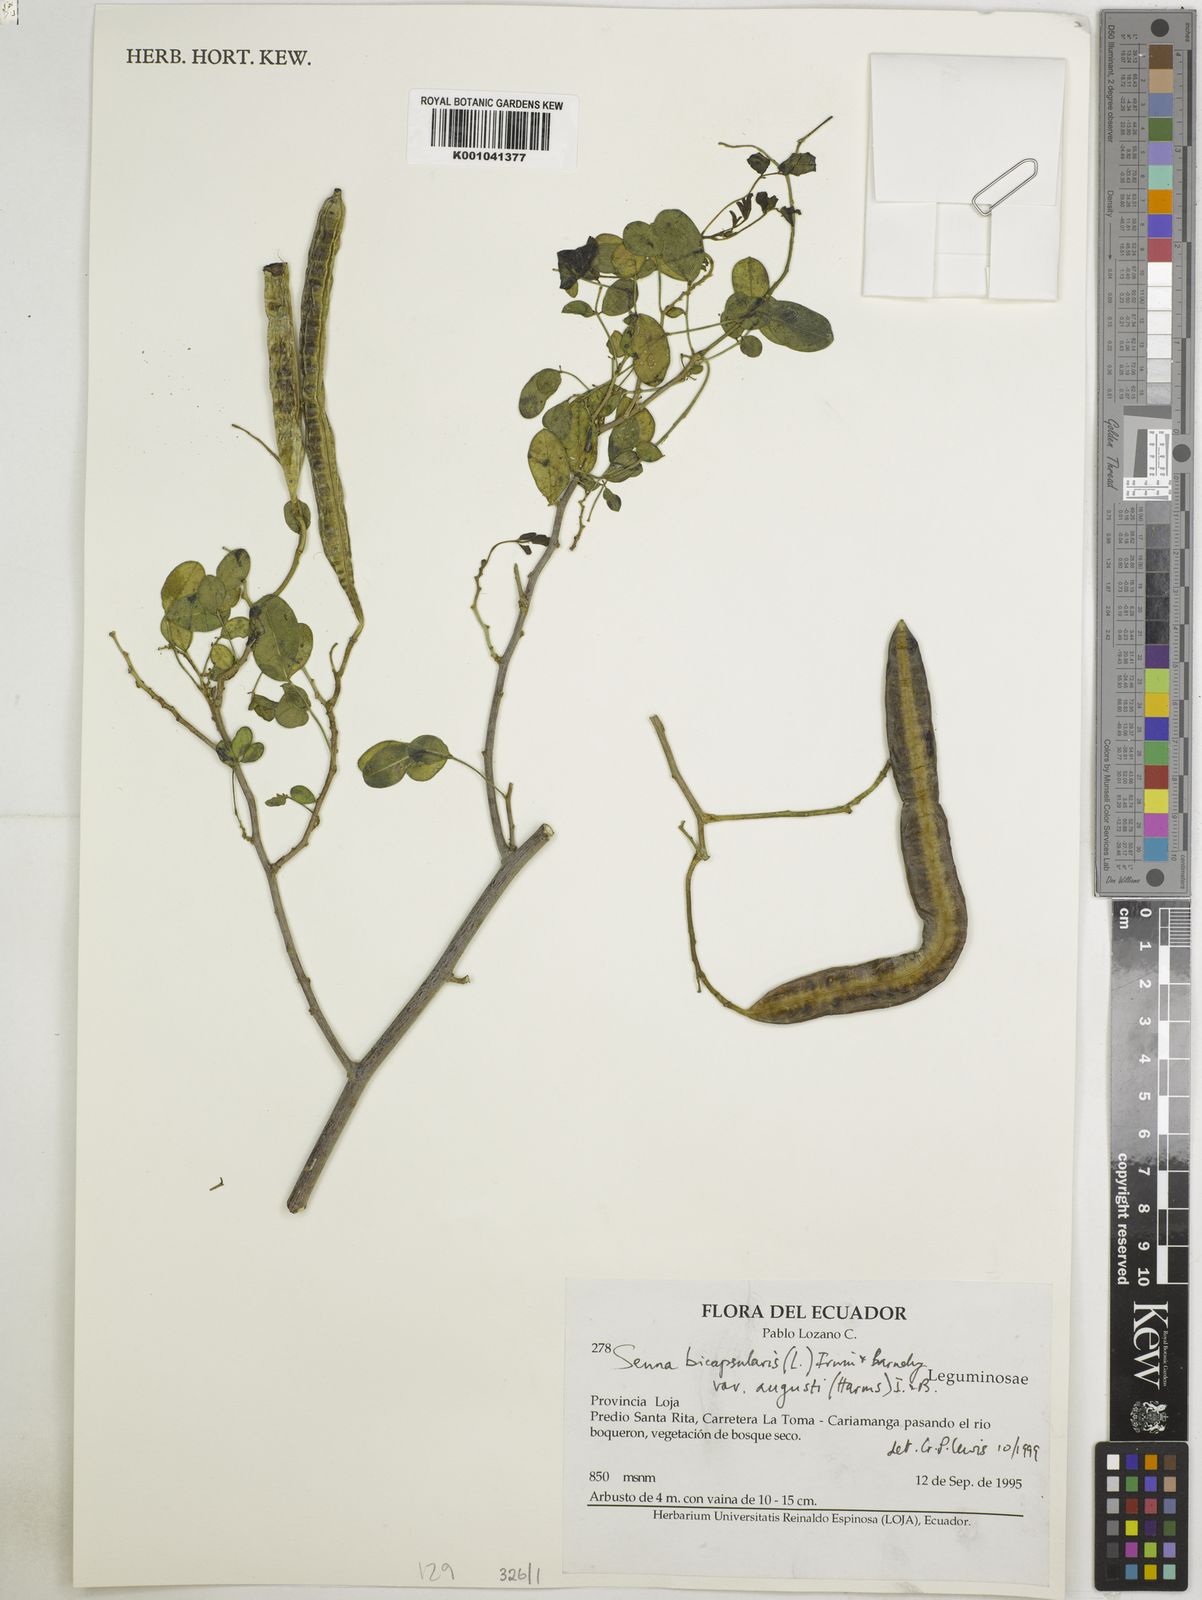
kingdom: Plantae
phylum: Tracheophyta
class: Magnoliopsida
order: Fabales
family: Fabaceae
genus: Senna
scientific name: Senna bicapsularis
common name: Christmasbush
